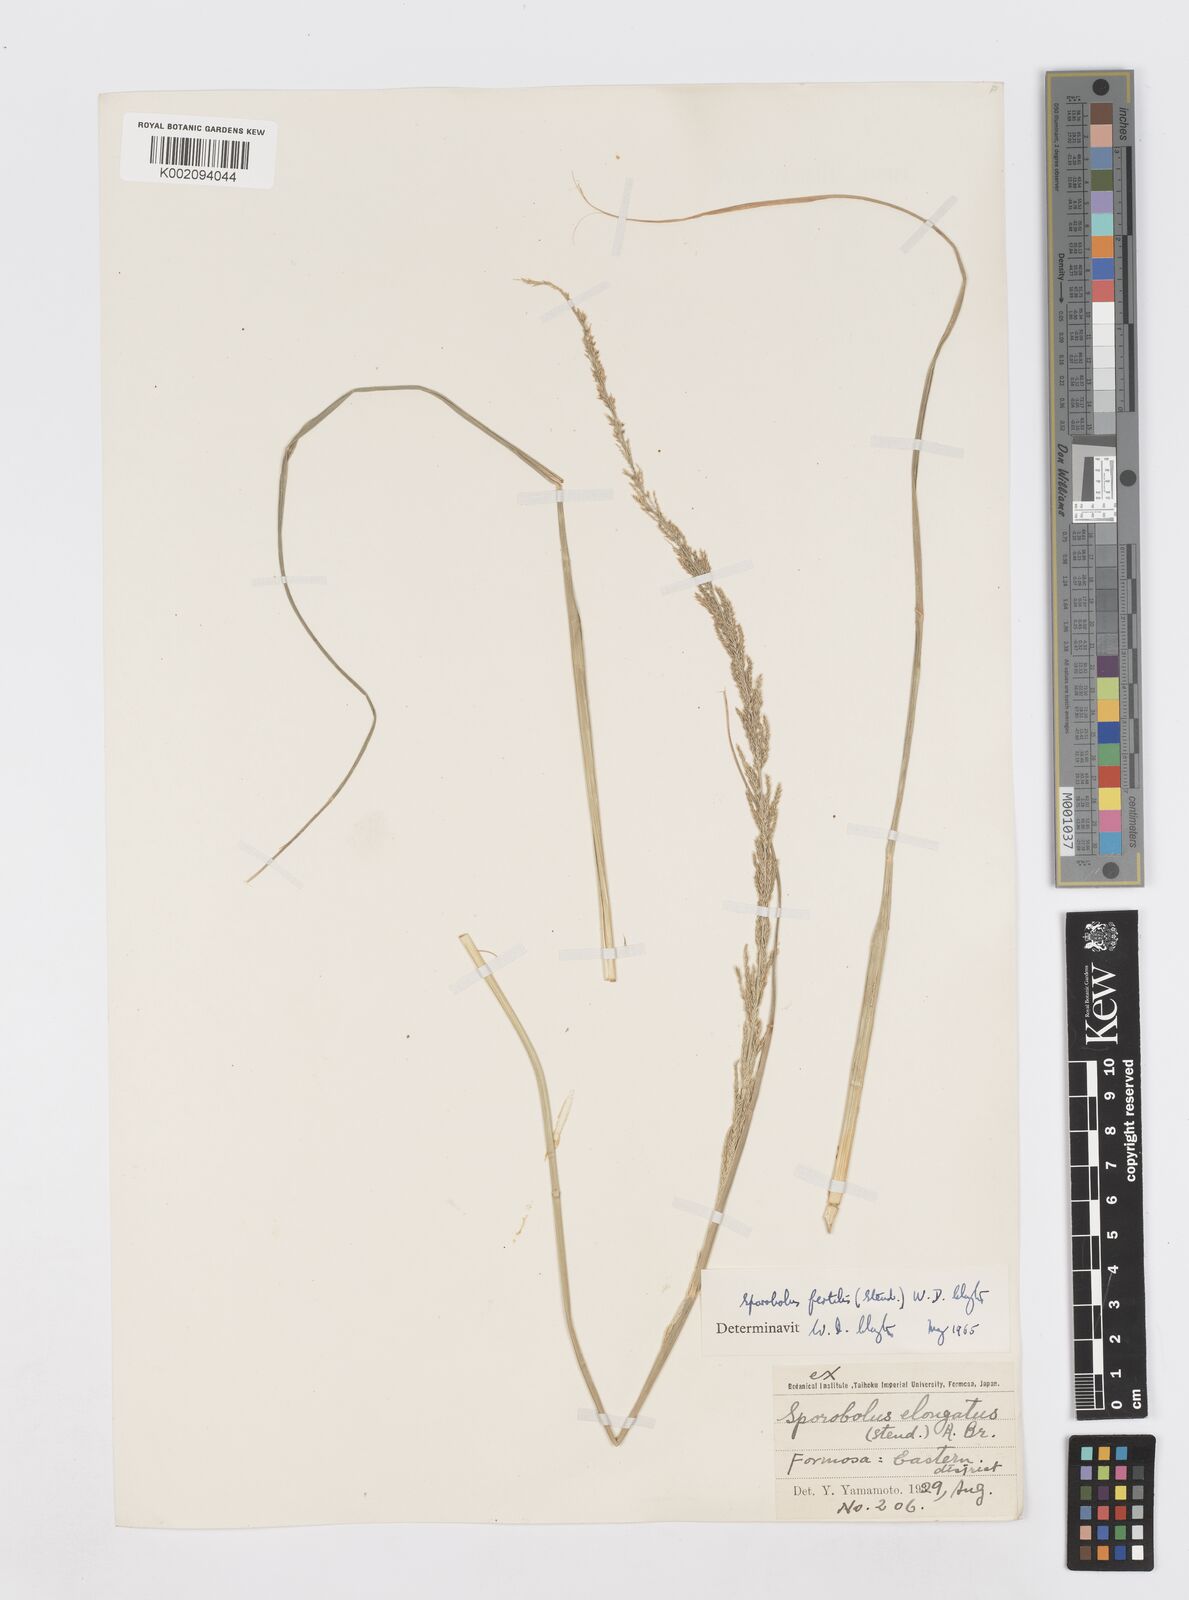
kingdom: Plantae
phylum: Tracheophyta
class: Liliopsida
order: Poales
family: Poaceae
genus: Sporobolus
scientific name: Sporobolus fertilis
